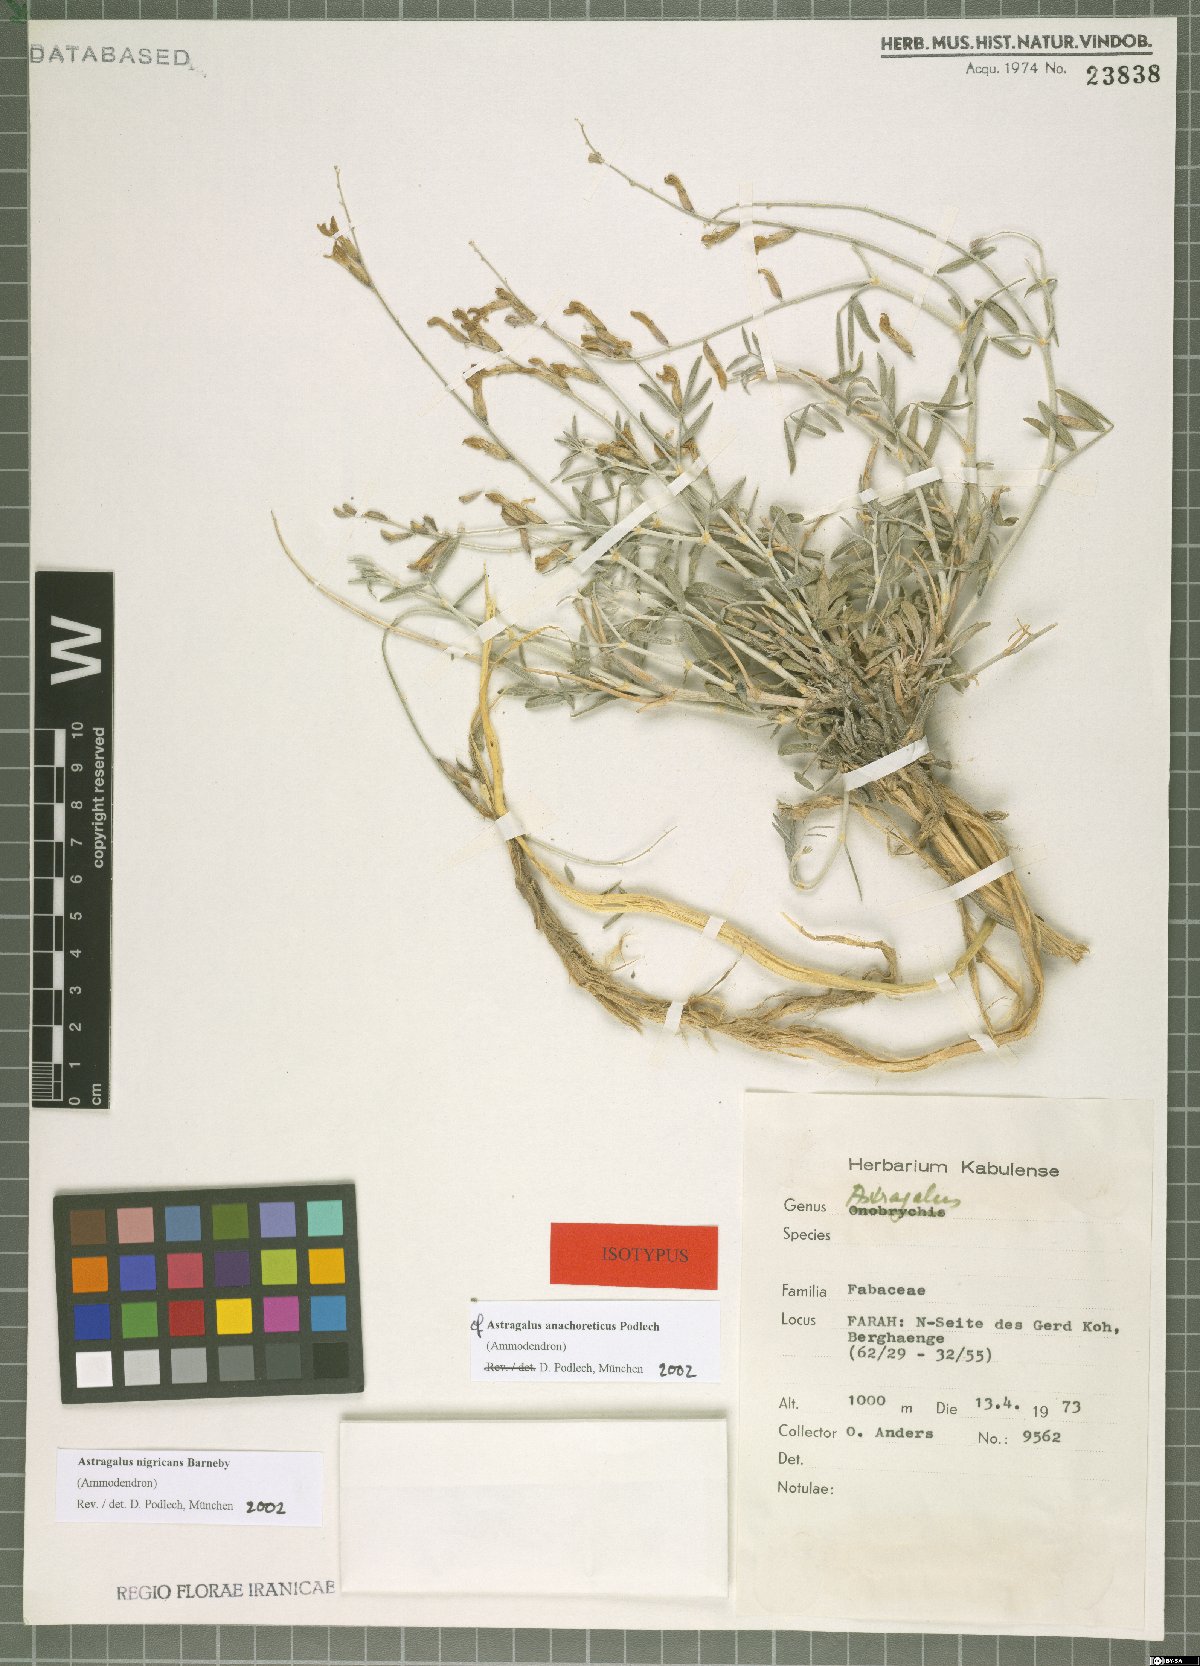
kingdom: Plantae
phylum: Tracheophyta
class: Magnoliopsida
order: Fabales
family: Fabaceae
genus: Astragalus
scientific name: Astragalus anachoreticus
